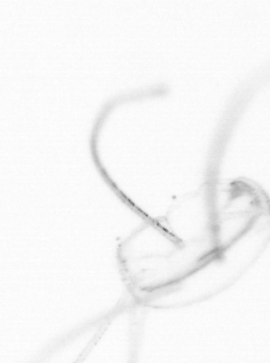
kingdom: Animalia
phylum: Cnidaria
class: Hydrozoa
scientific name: Hydrozoa
